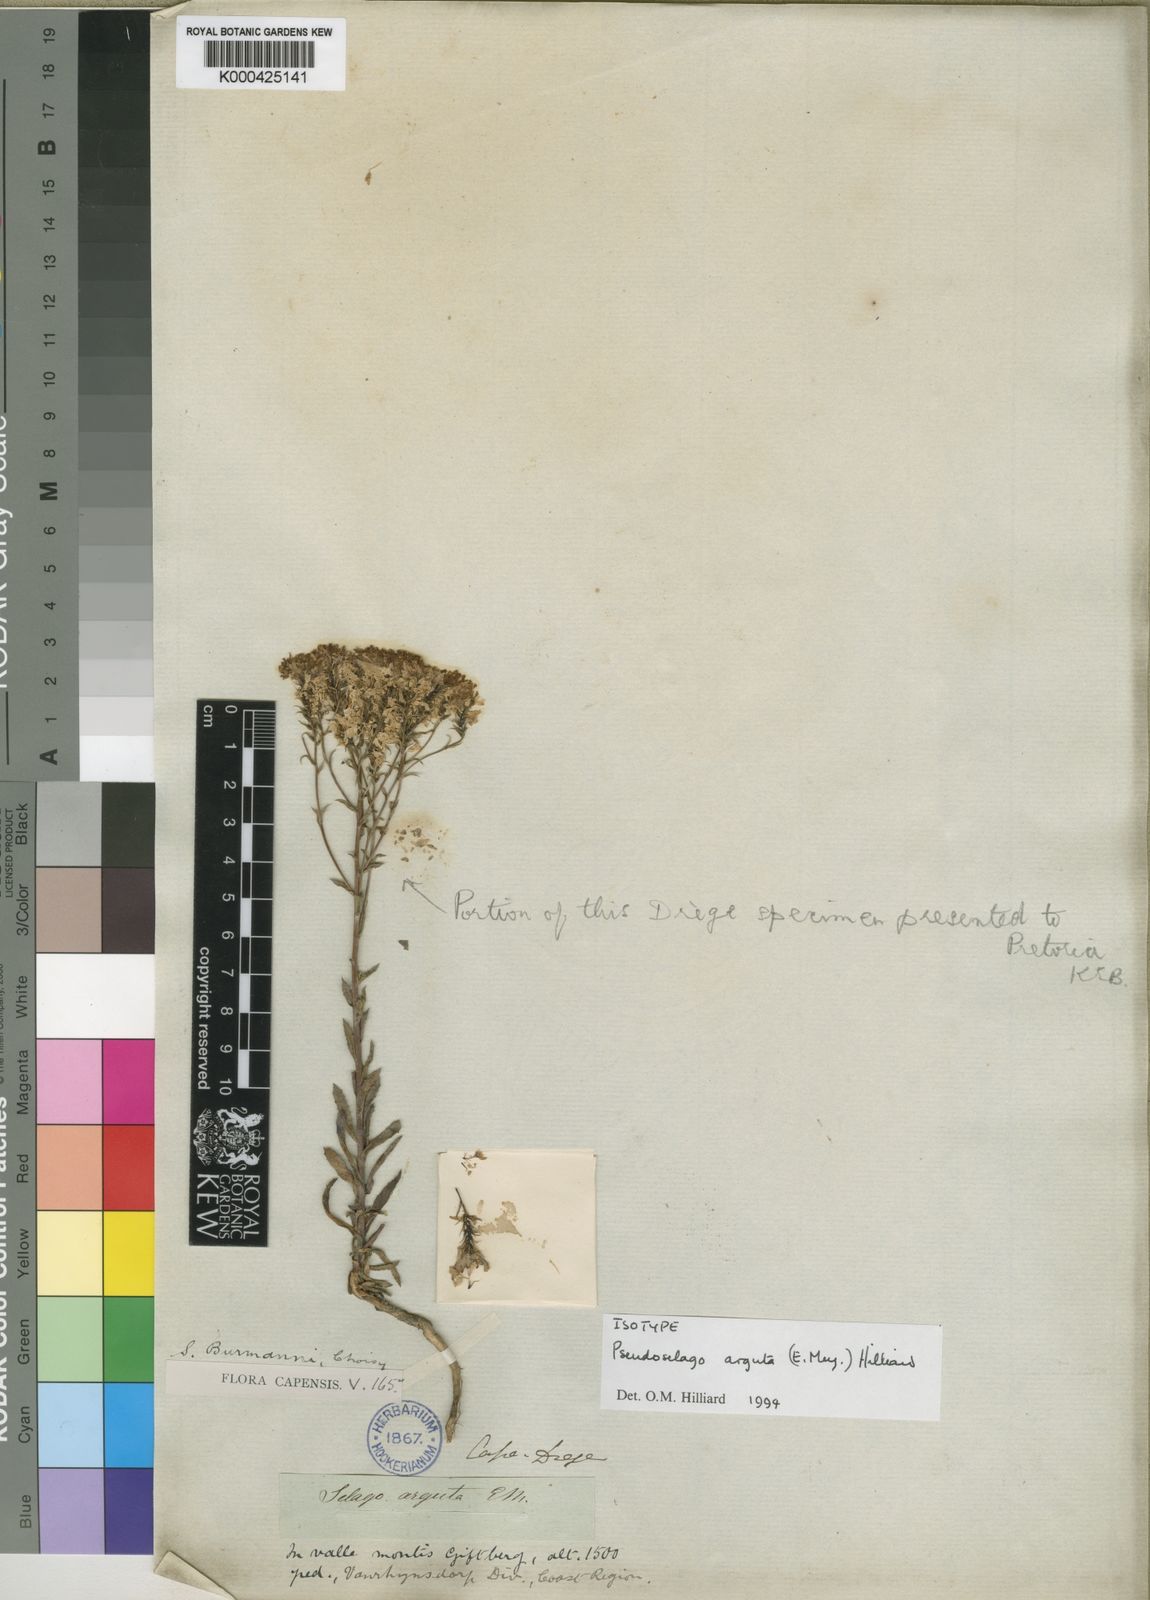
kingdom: Plantae
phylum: Tracheophyta
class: Magnoliopsida
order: Lamiales
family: Scrophulariaceae
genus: Pseudoselago
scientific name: Pseudoselago arguta
